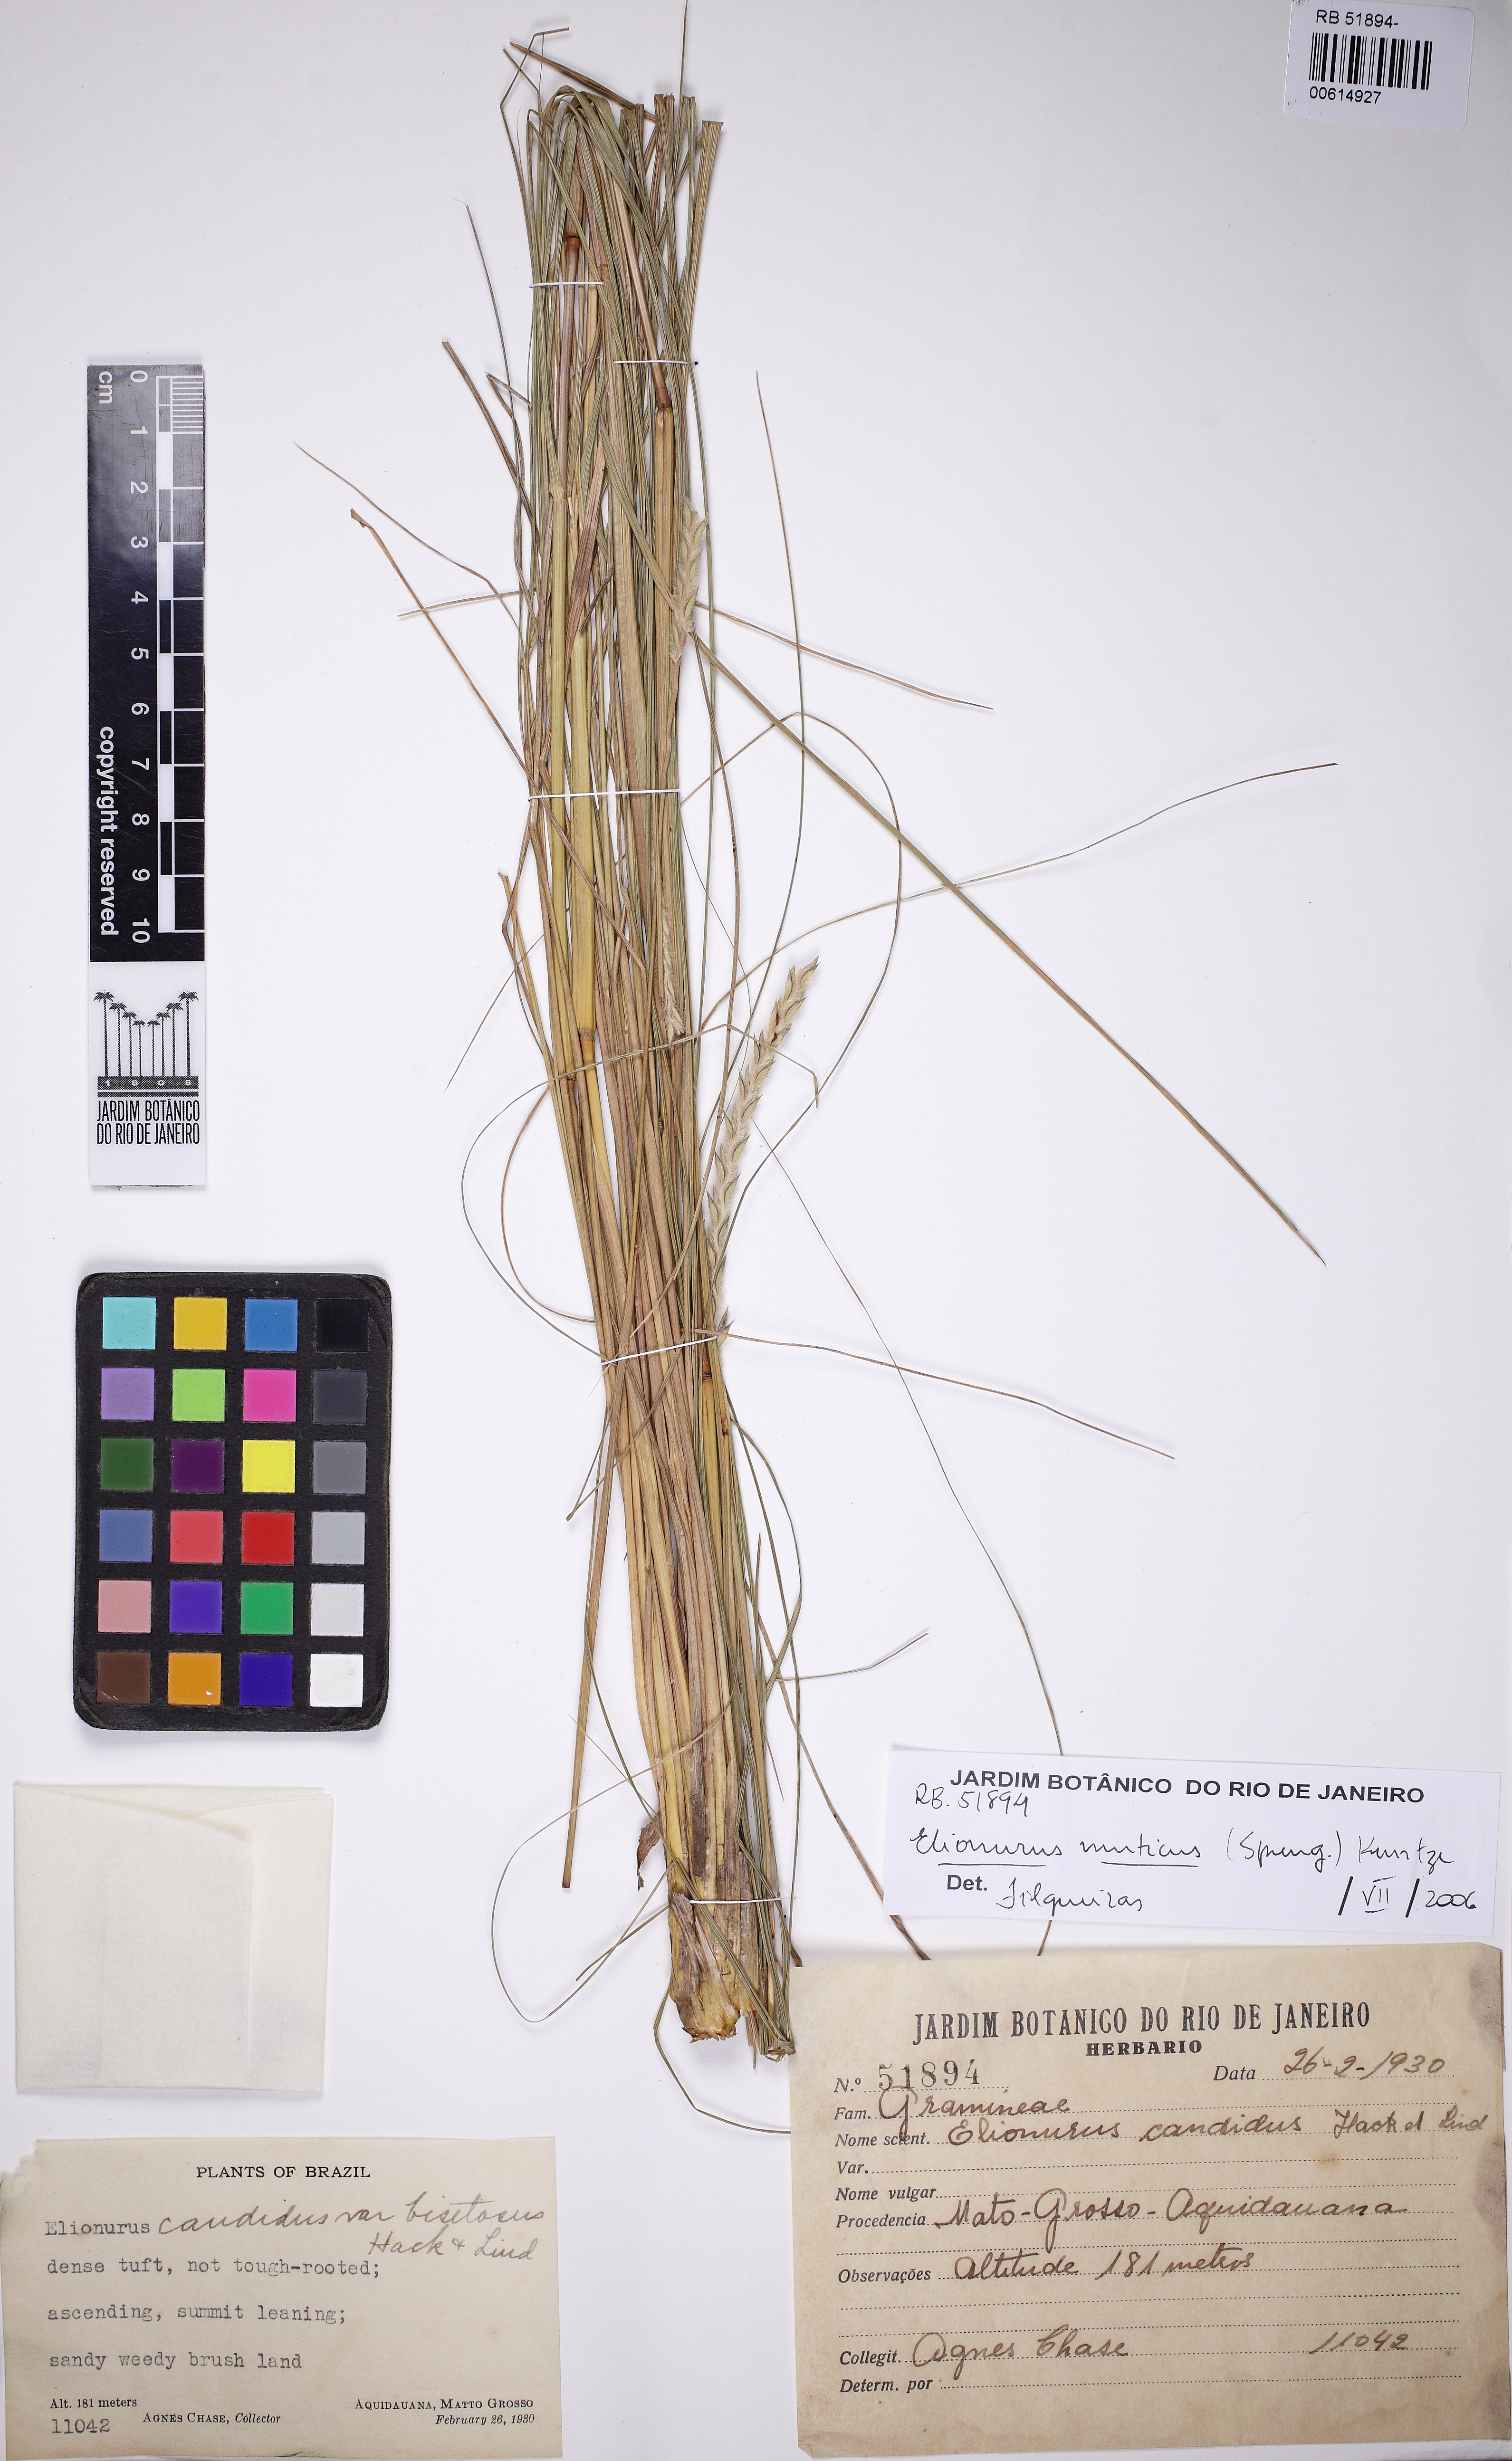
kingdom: Plantae
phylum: Tracheophyta
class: Liliopsida
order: Poales
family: Poaceae
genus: Elionurus
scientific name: Elionurus muticus
